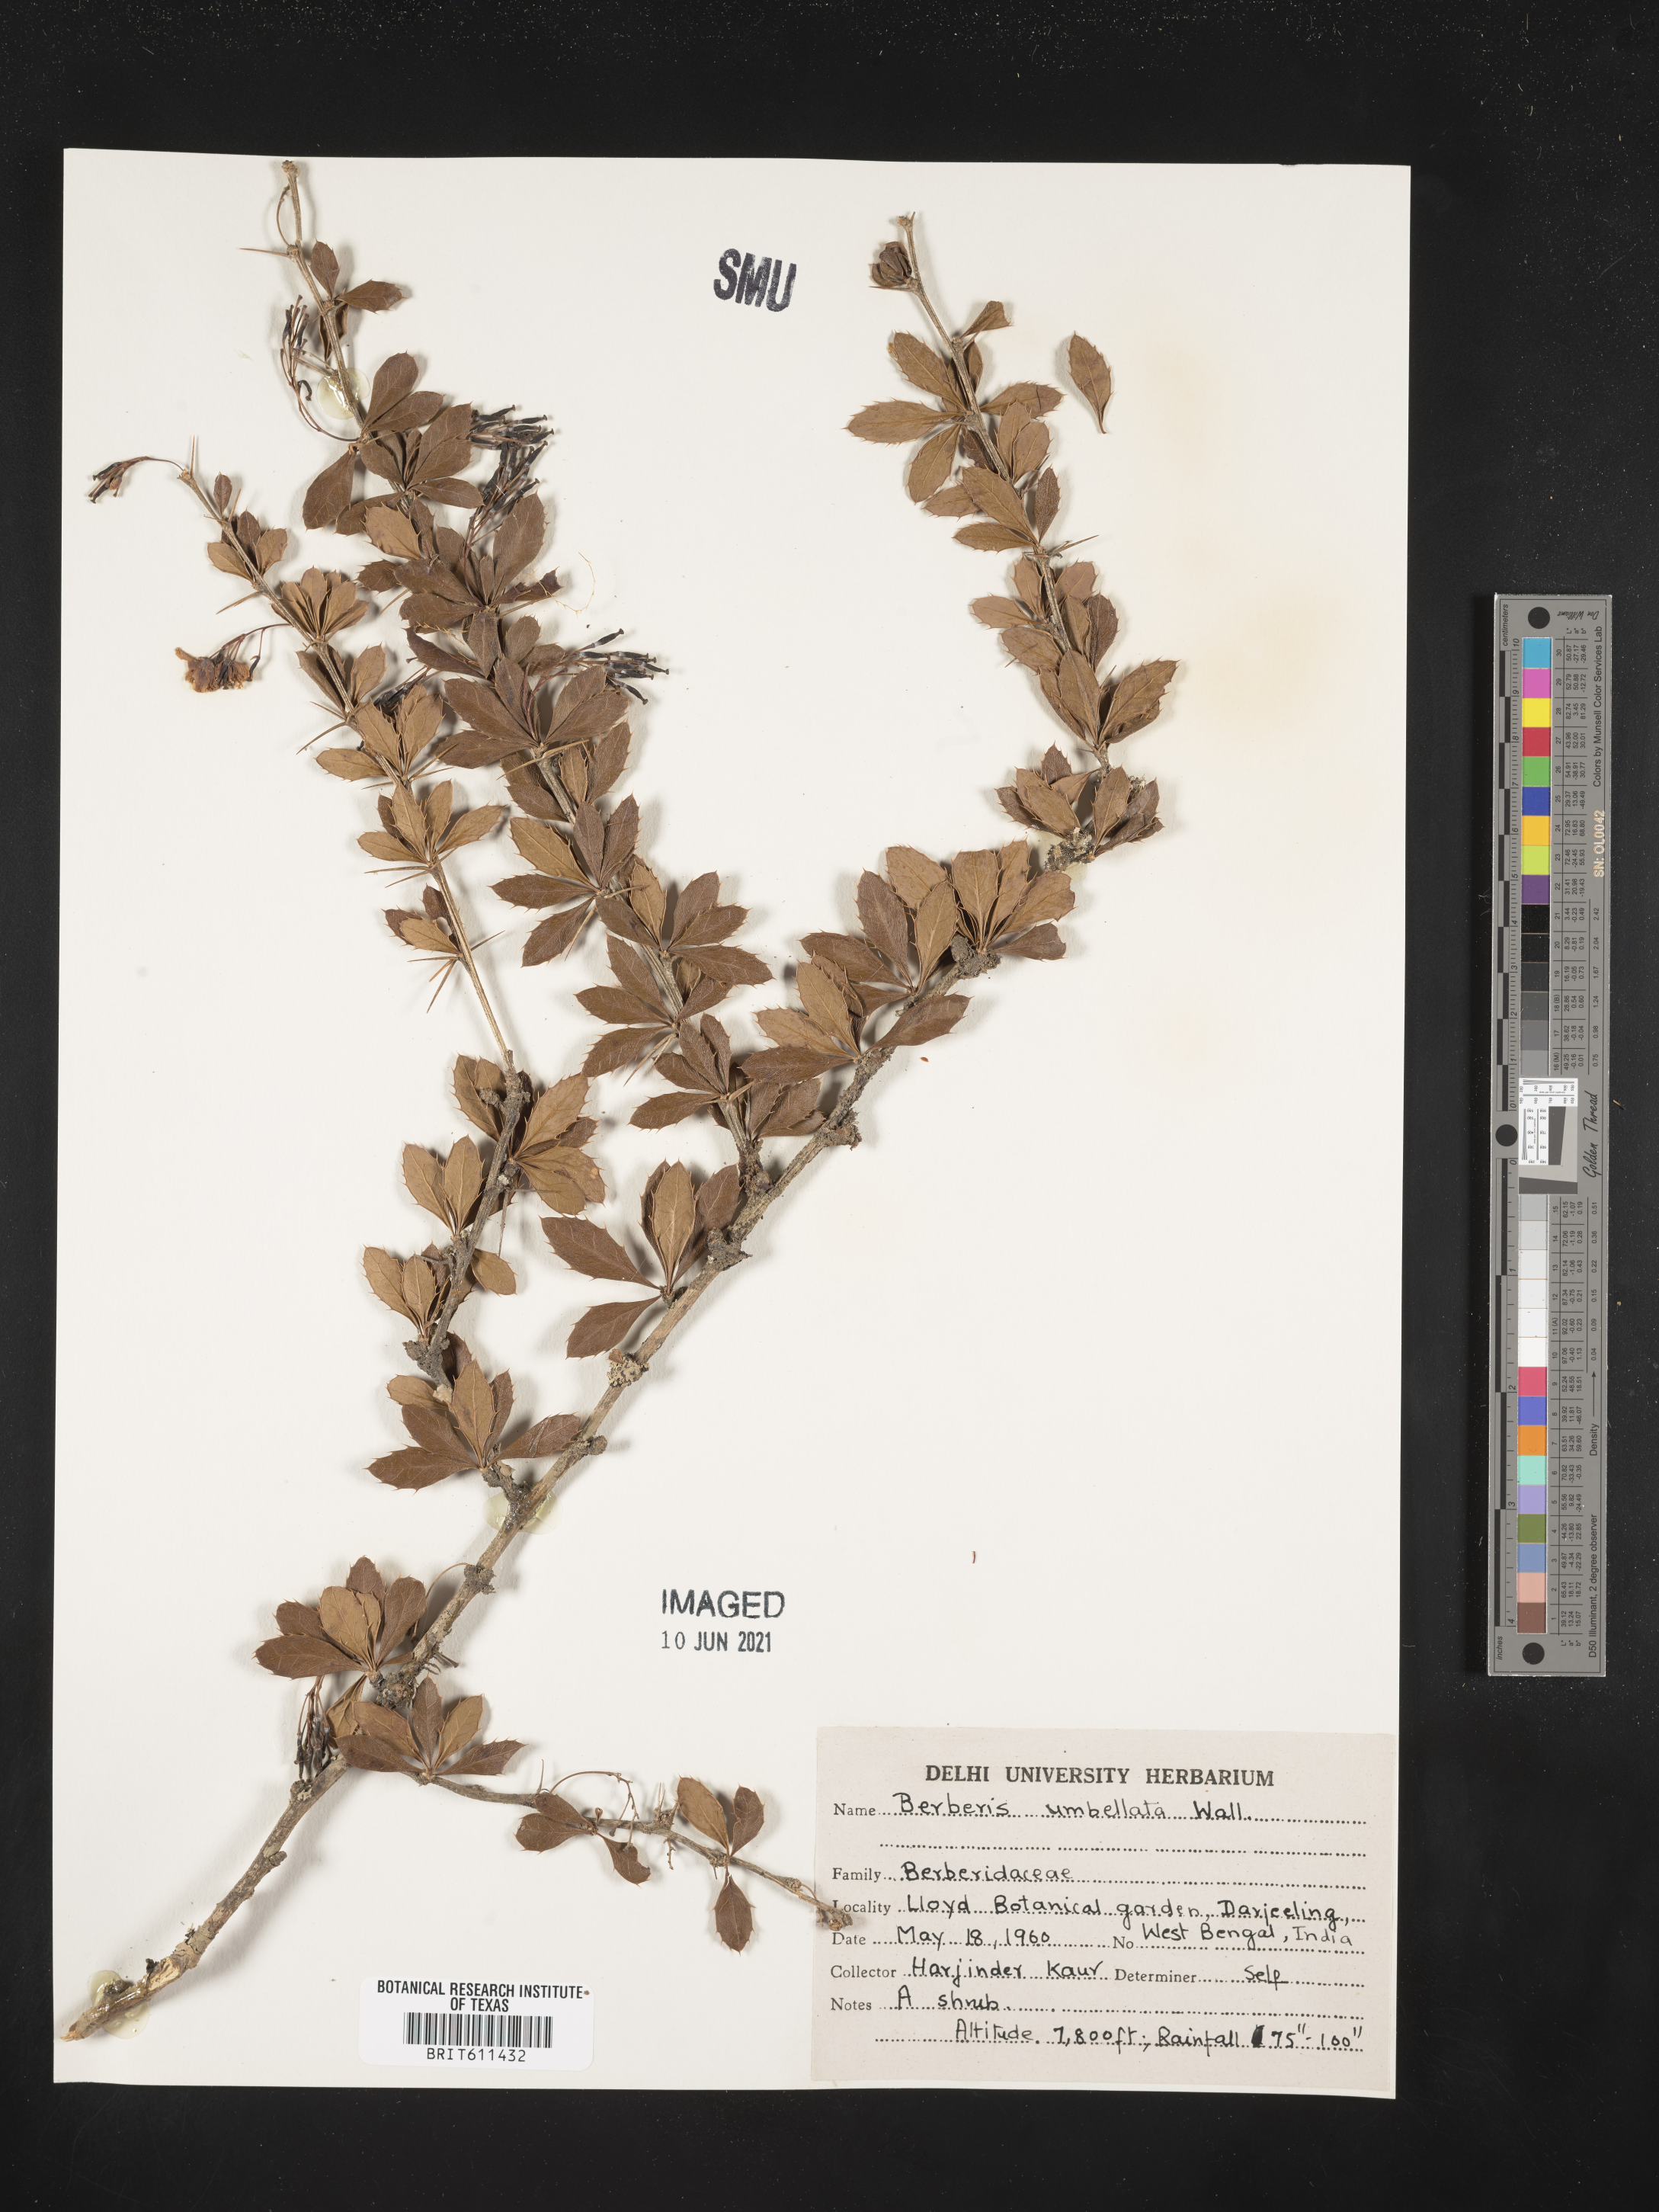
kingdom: Plantae
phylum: Tracheophyta
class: Magnoliopsida
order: Ranunculales
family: Berberidaceae
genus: Berberis
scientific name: Berberis umbellata
